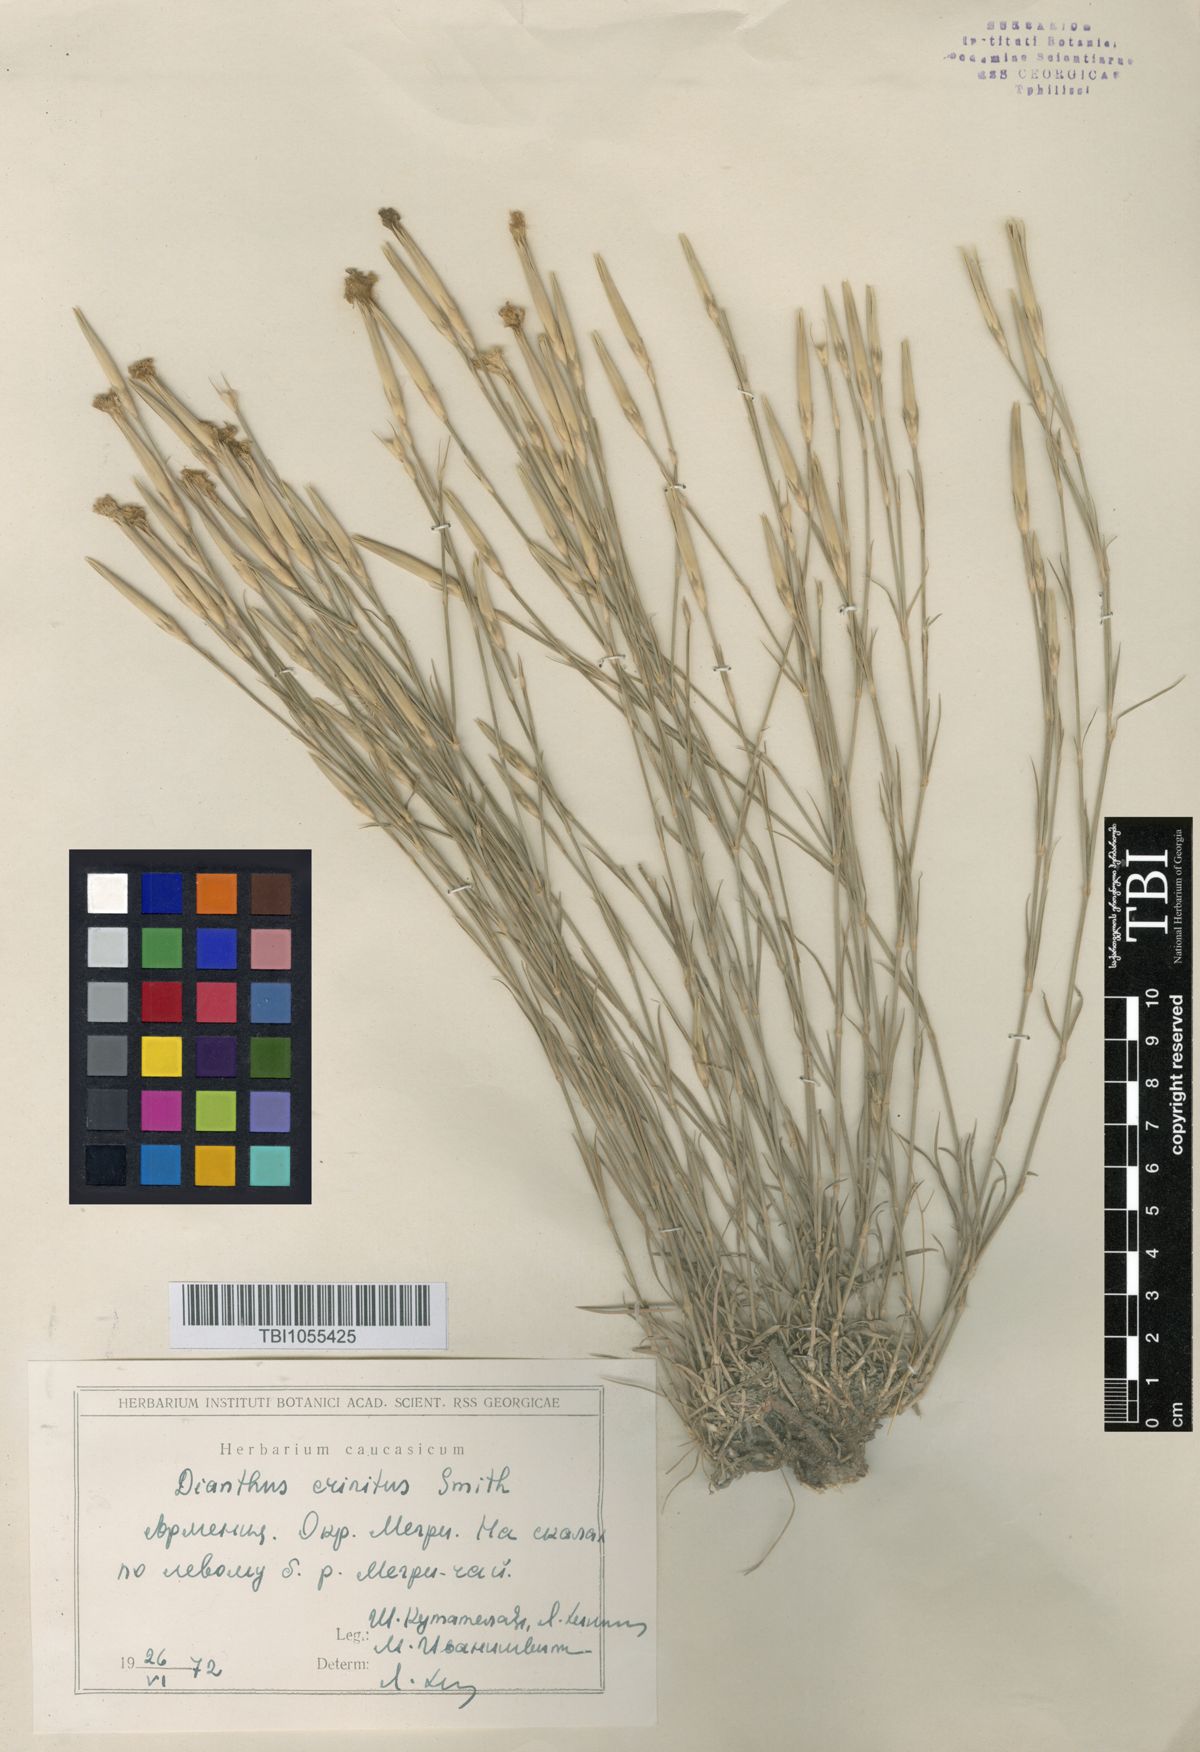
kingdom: Plantae
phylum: Tracheophyta
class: Magnoliopsida
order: Caryophyllales
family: Caryophyllaceae
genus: Dianthus
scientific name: Dianthus crinitus
